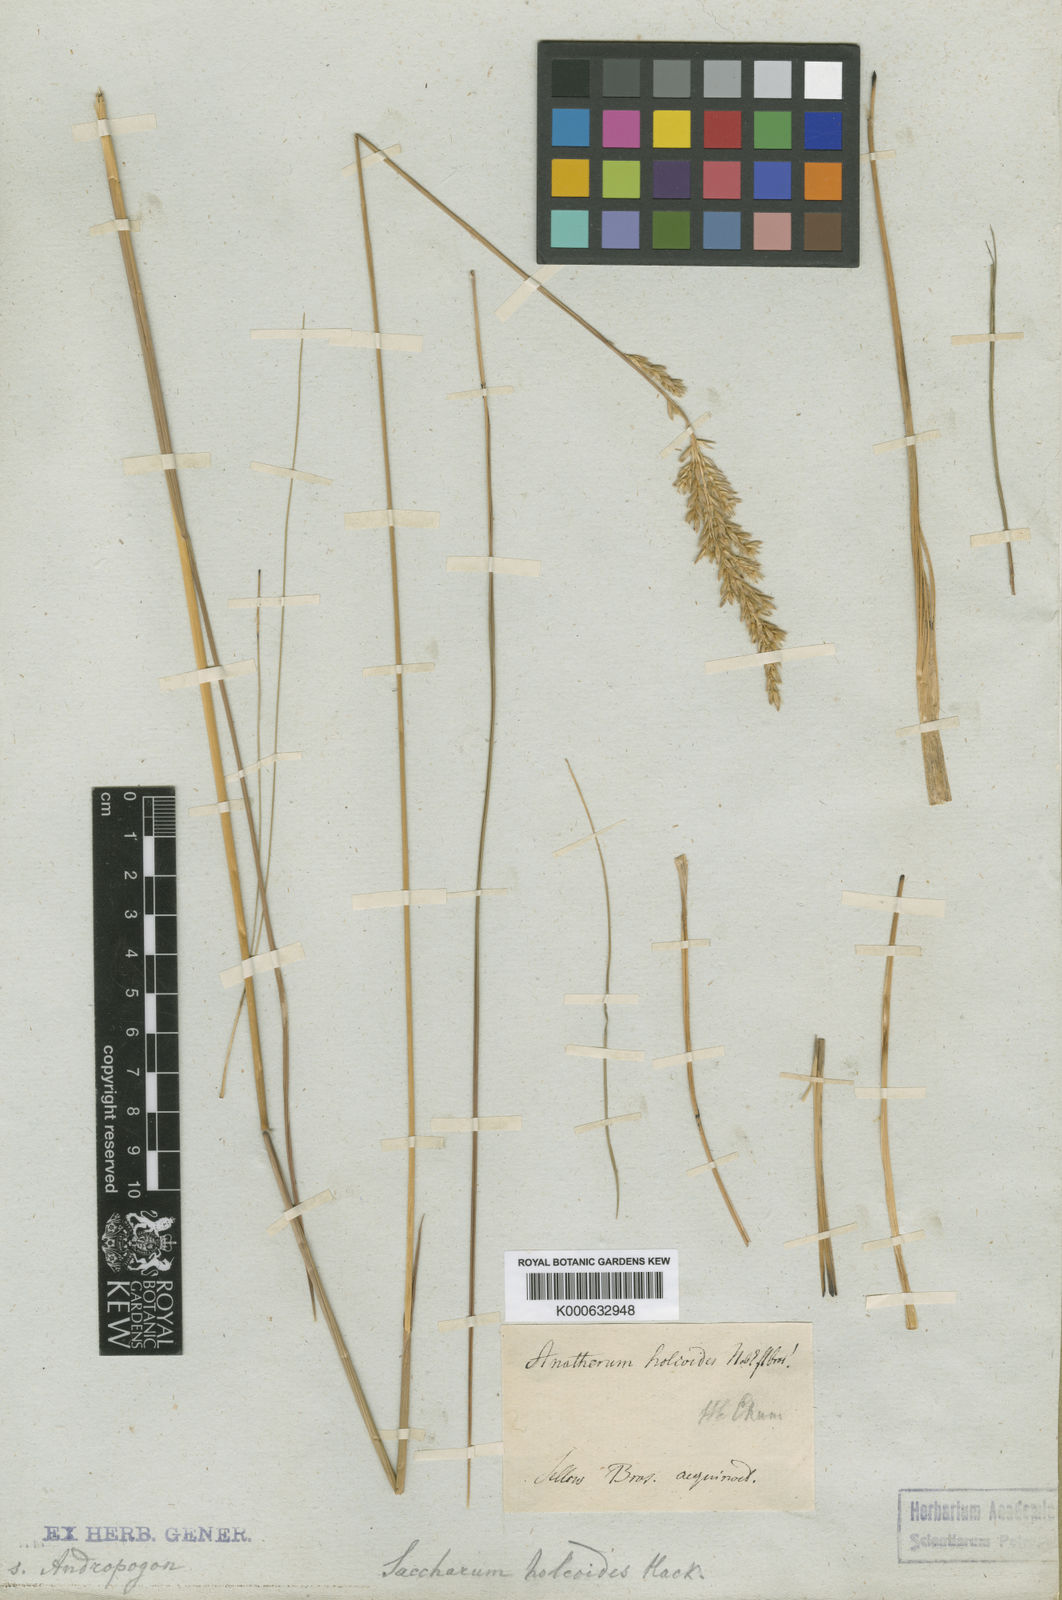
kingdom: Plantae
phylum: Tracheophyta
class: Liliopsida
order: Poales
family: Poaceae
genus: Eriochrysis
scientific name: Eriochrysis holcoides
